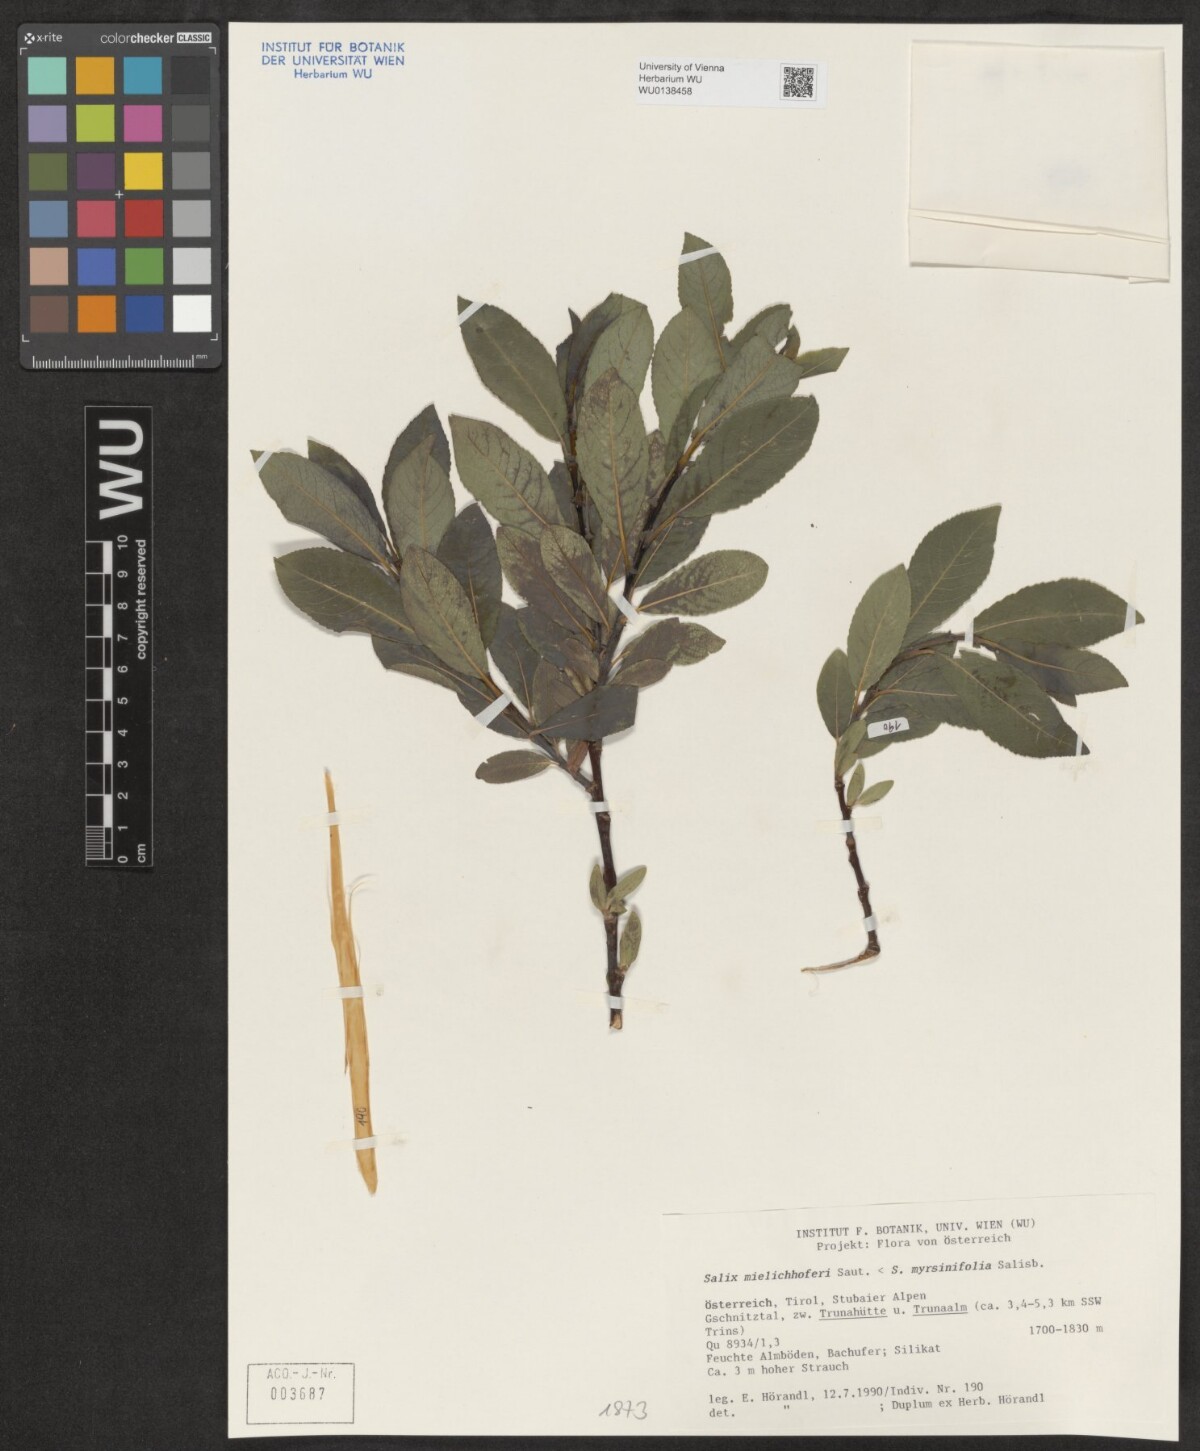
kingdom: Plantae
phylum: Tracheophyta
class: Magnoliopsida
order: Malpighiales
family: Salicaceae
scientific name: Salicaceae
